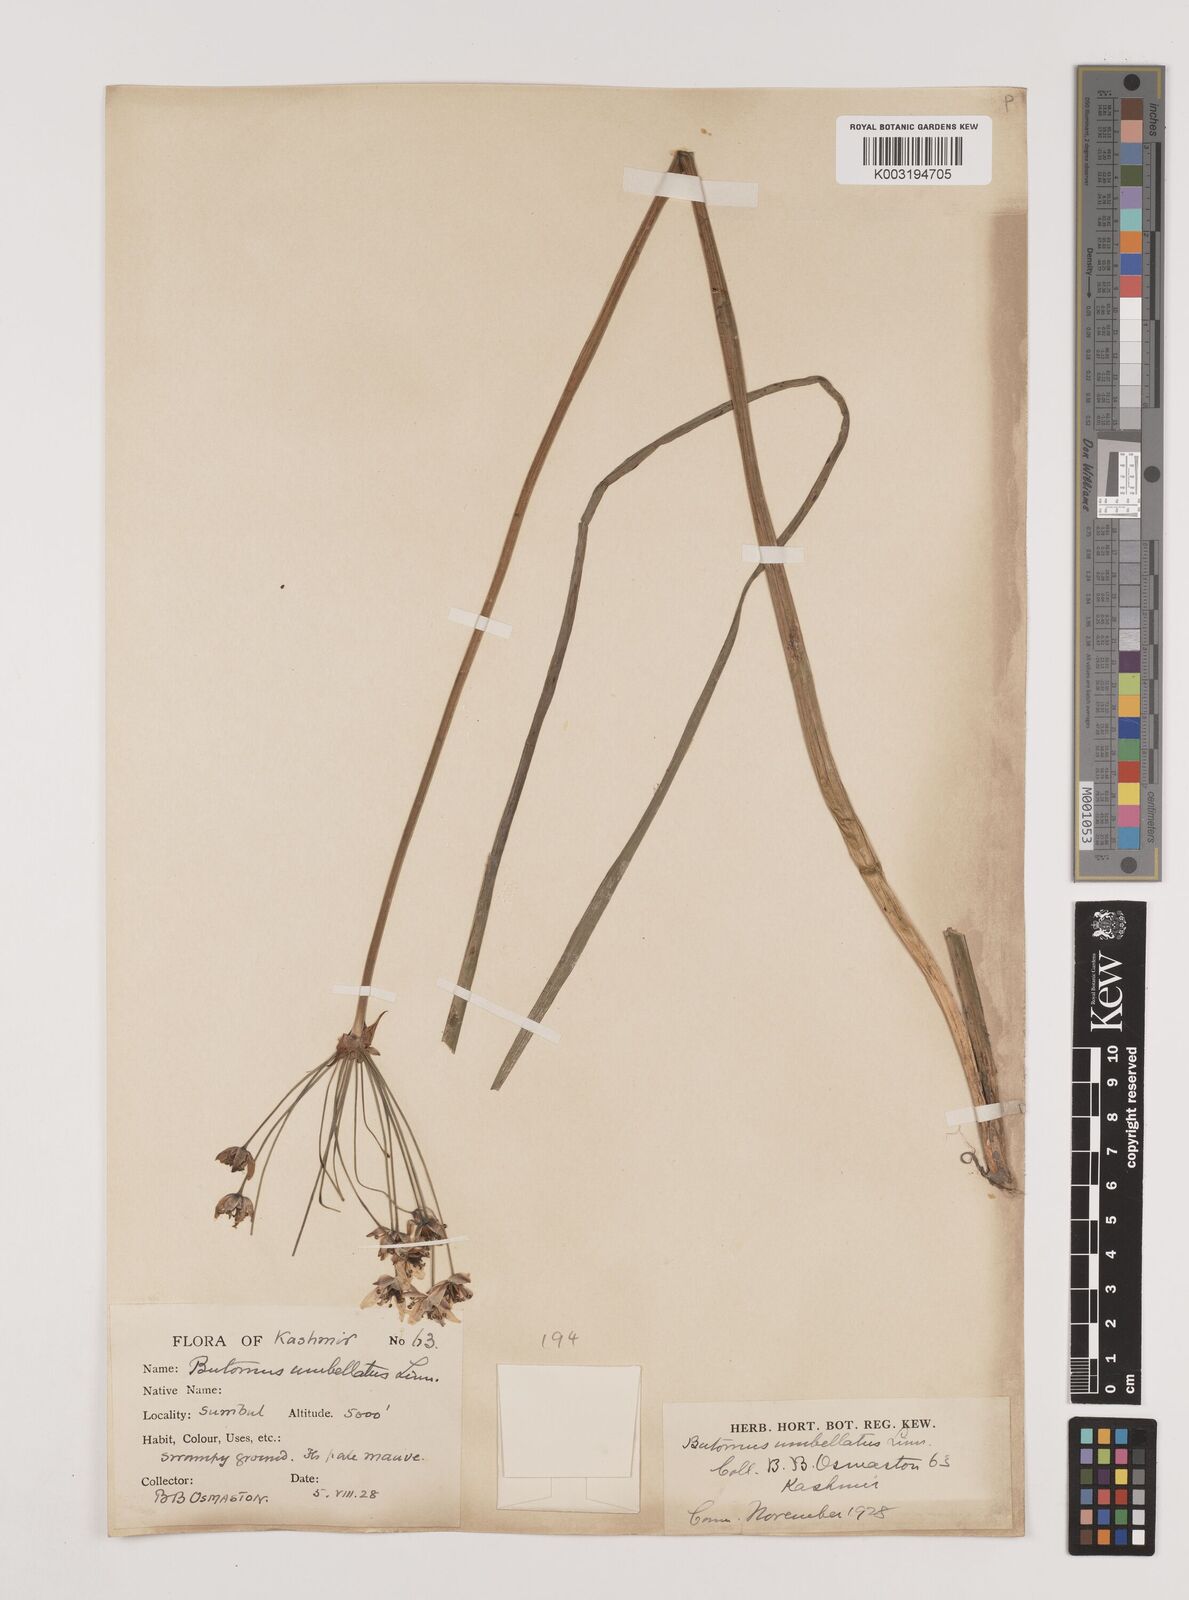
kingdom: Plantae
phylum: Tracheophyta
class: Liliopsida
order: Alismatales
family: Butomaceae
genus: Butomus
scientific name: Butomus umbellatus
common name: Flowering-rush
